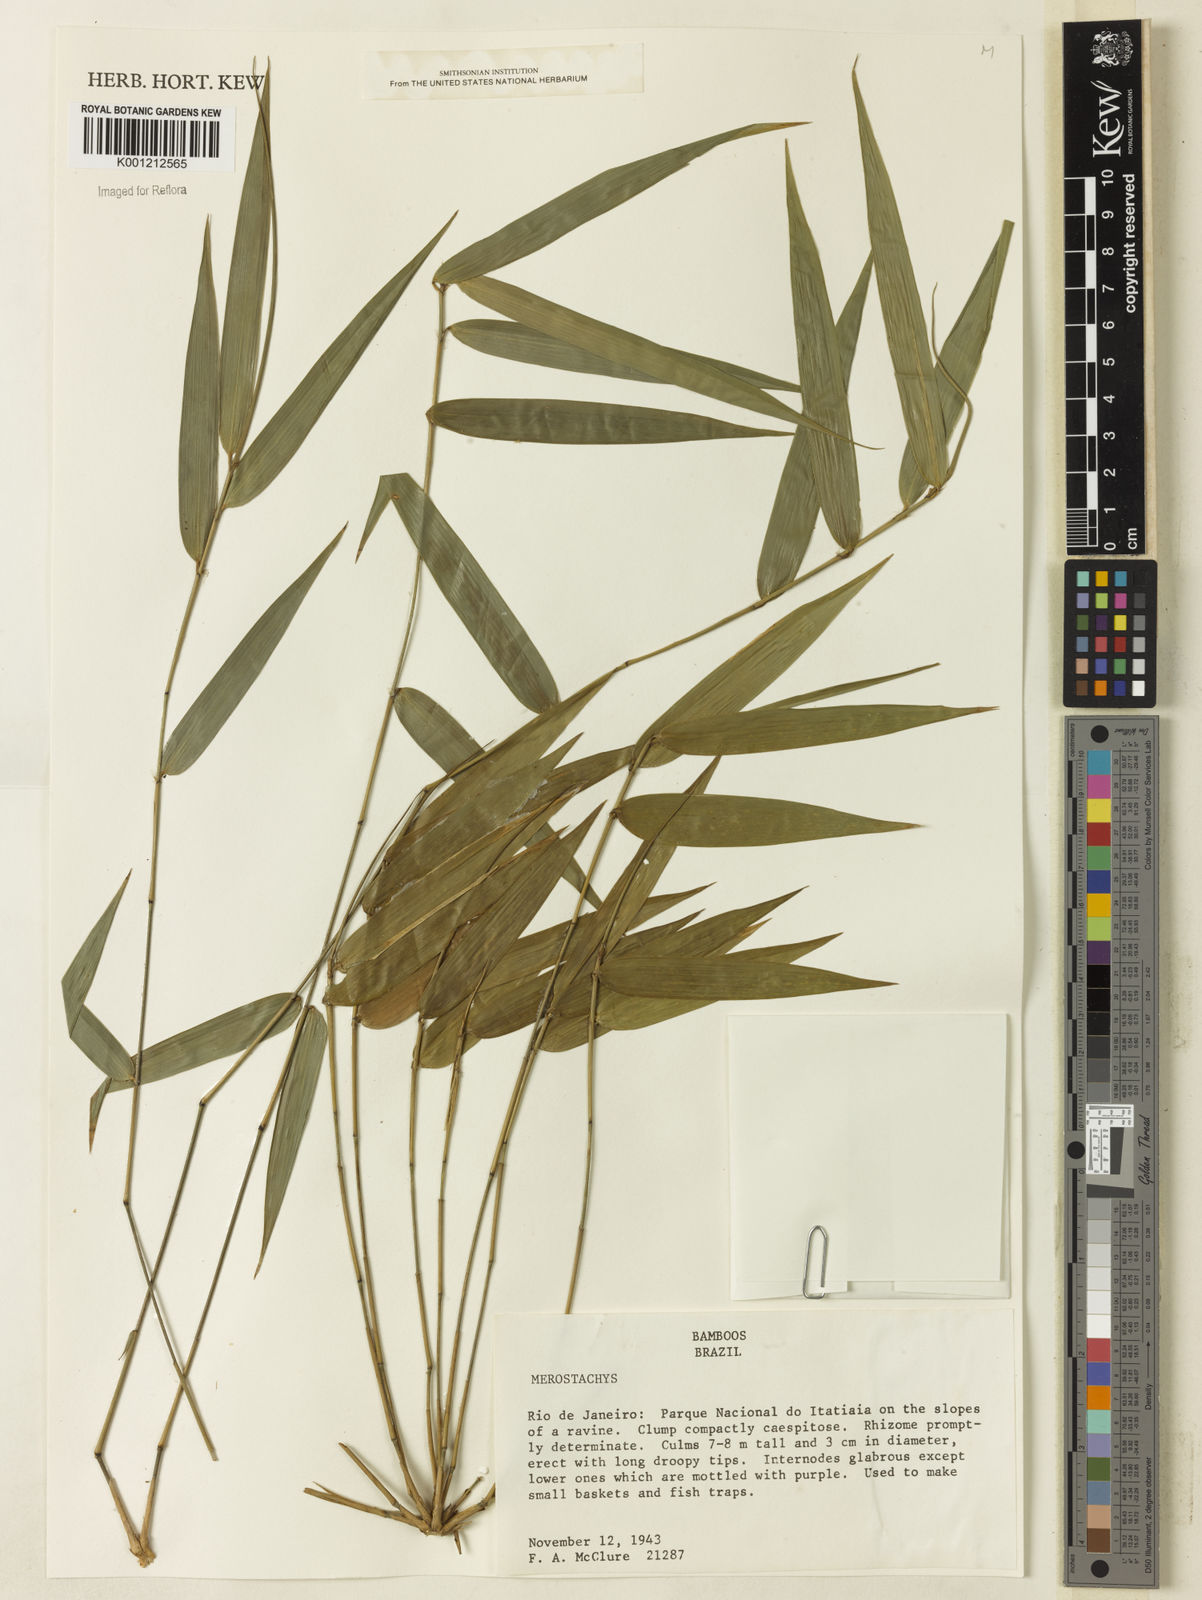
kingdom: Plantae
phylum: Tracheophyta
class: Liliopsida
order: Poales
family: Poaceae
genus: Merostachys
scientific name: Merostachys
